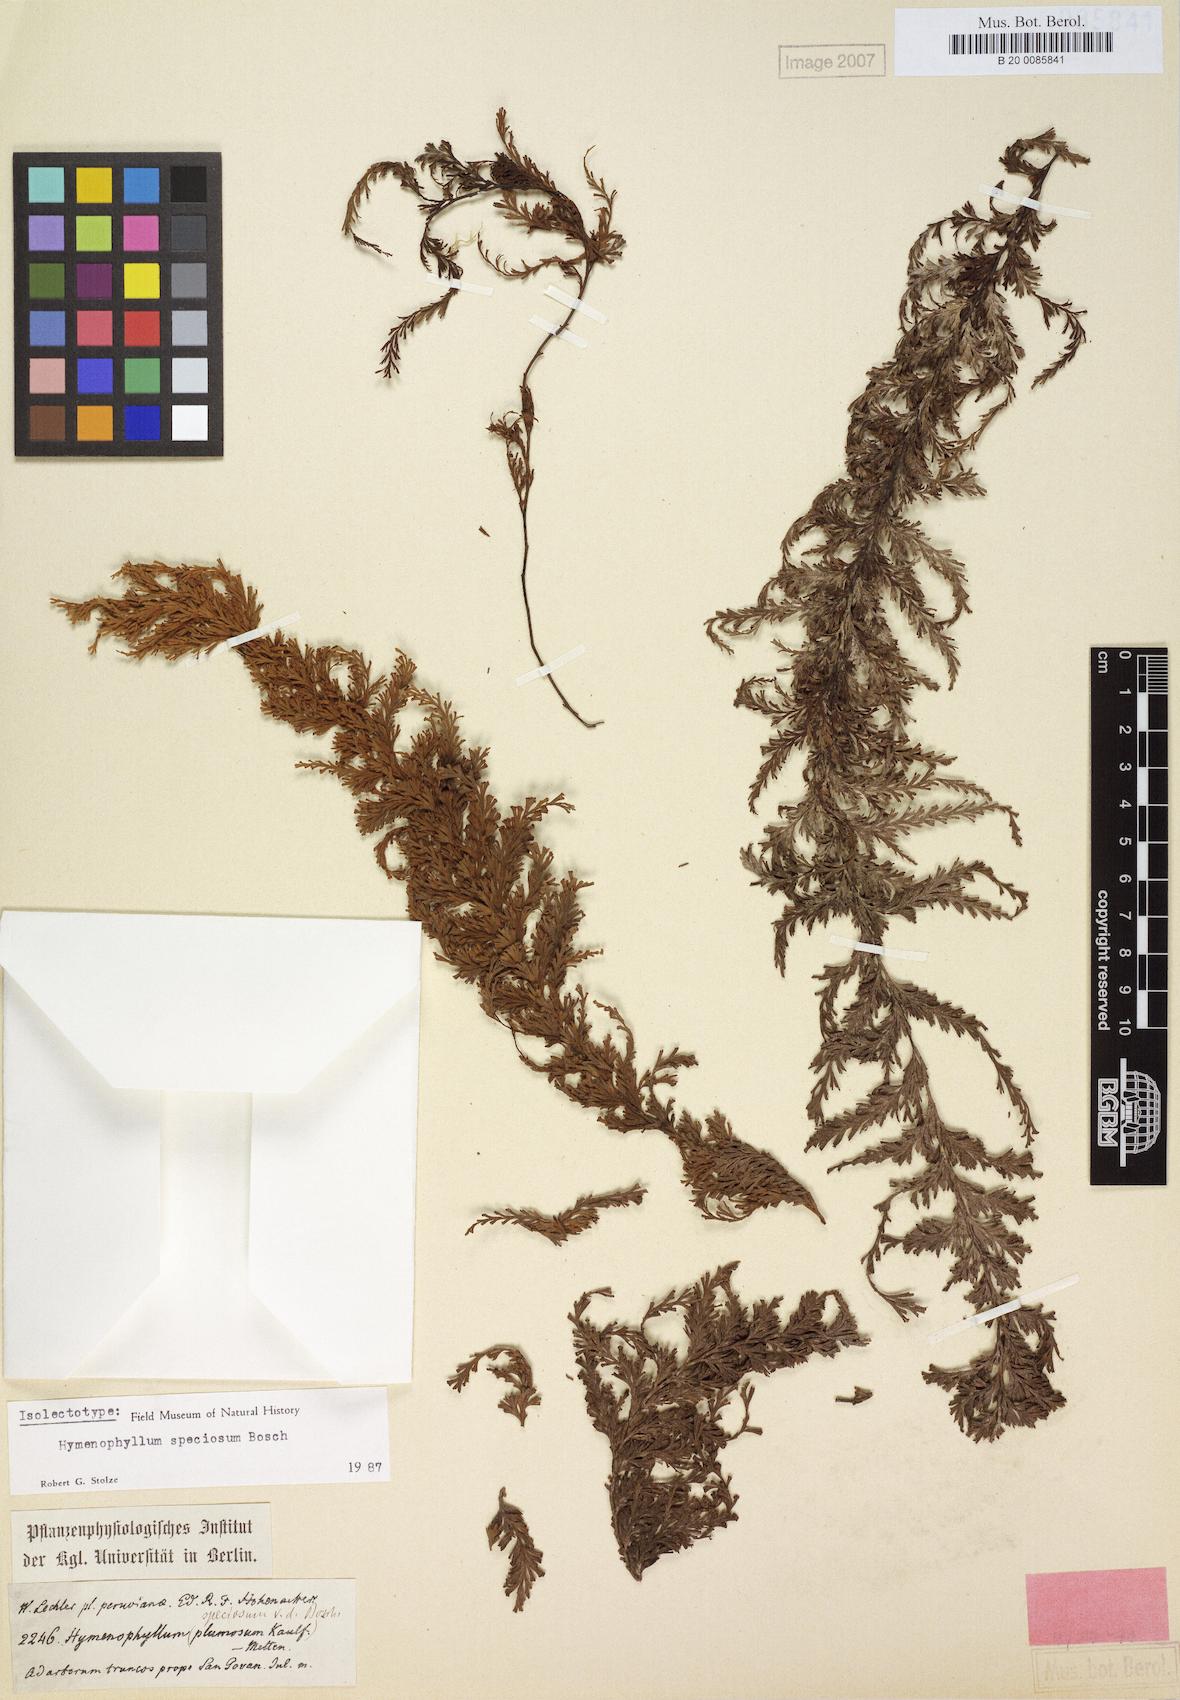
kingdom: Plantae
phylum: Tracheophyta
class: Polypodiopsida
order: Hymenophyllales
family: Hymenophyllaceae
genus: Hymenophyllum
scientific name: Hymenophyllum sericeum
